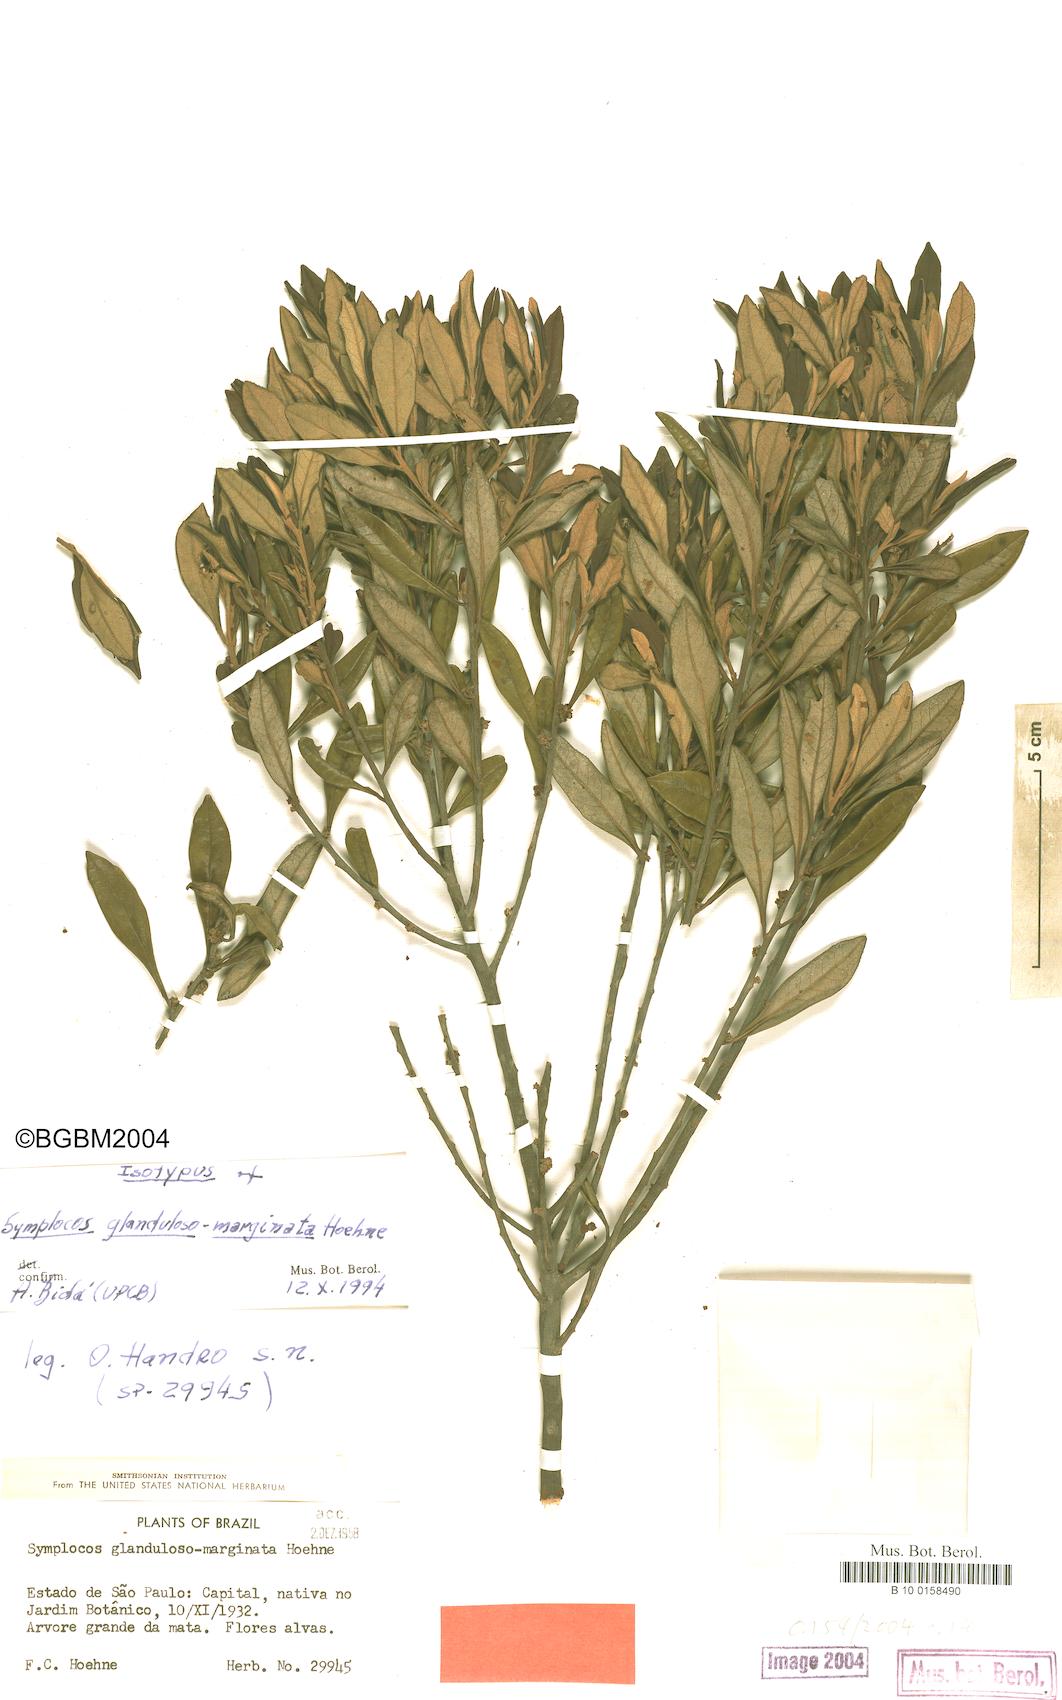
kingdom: Plantae
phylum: Tracheophyta
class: Magnoliopsida
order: Ericales
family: Symplocaceae
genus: Symplocos
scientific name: Symplocos glandulosomarginata
